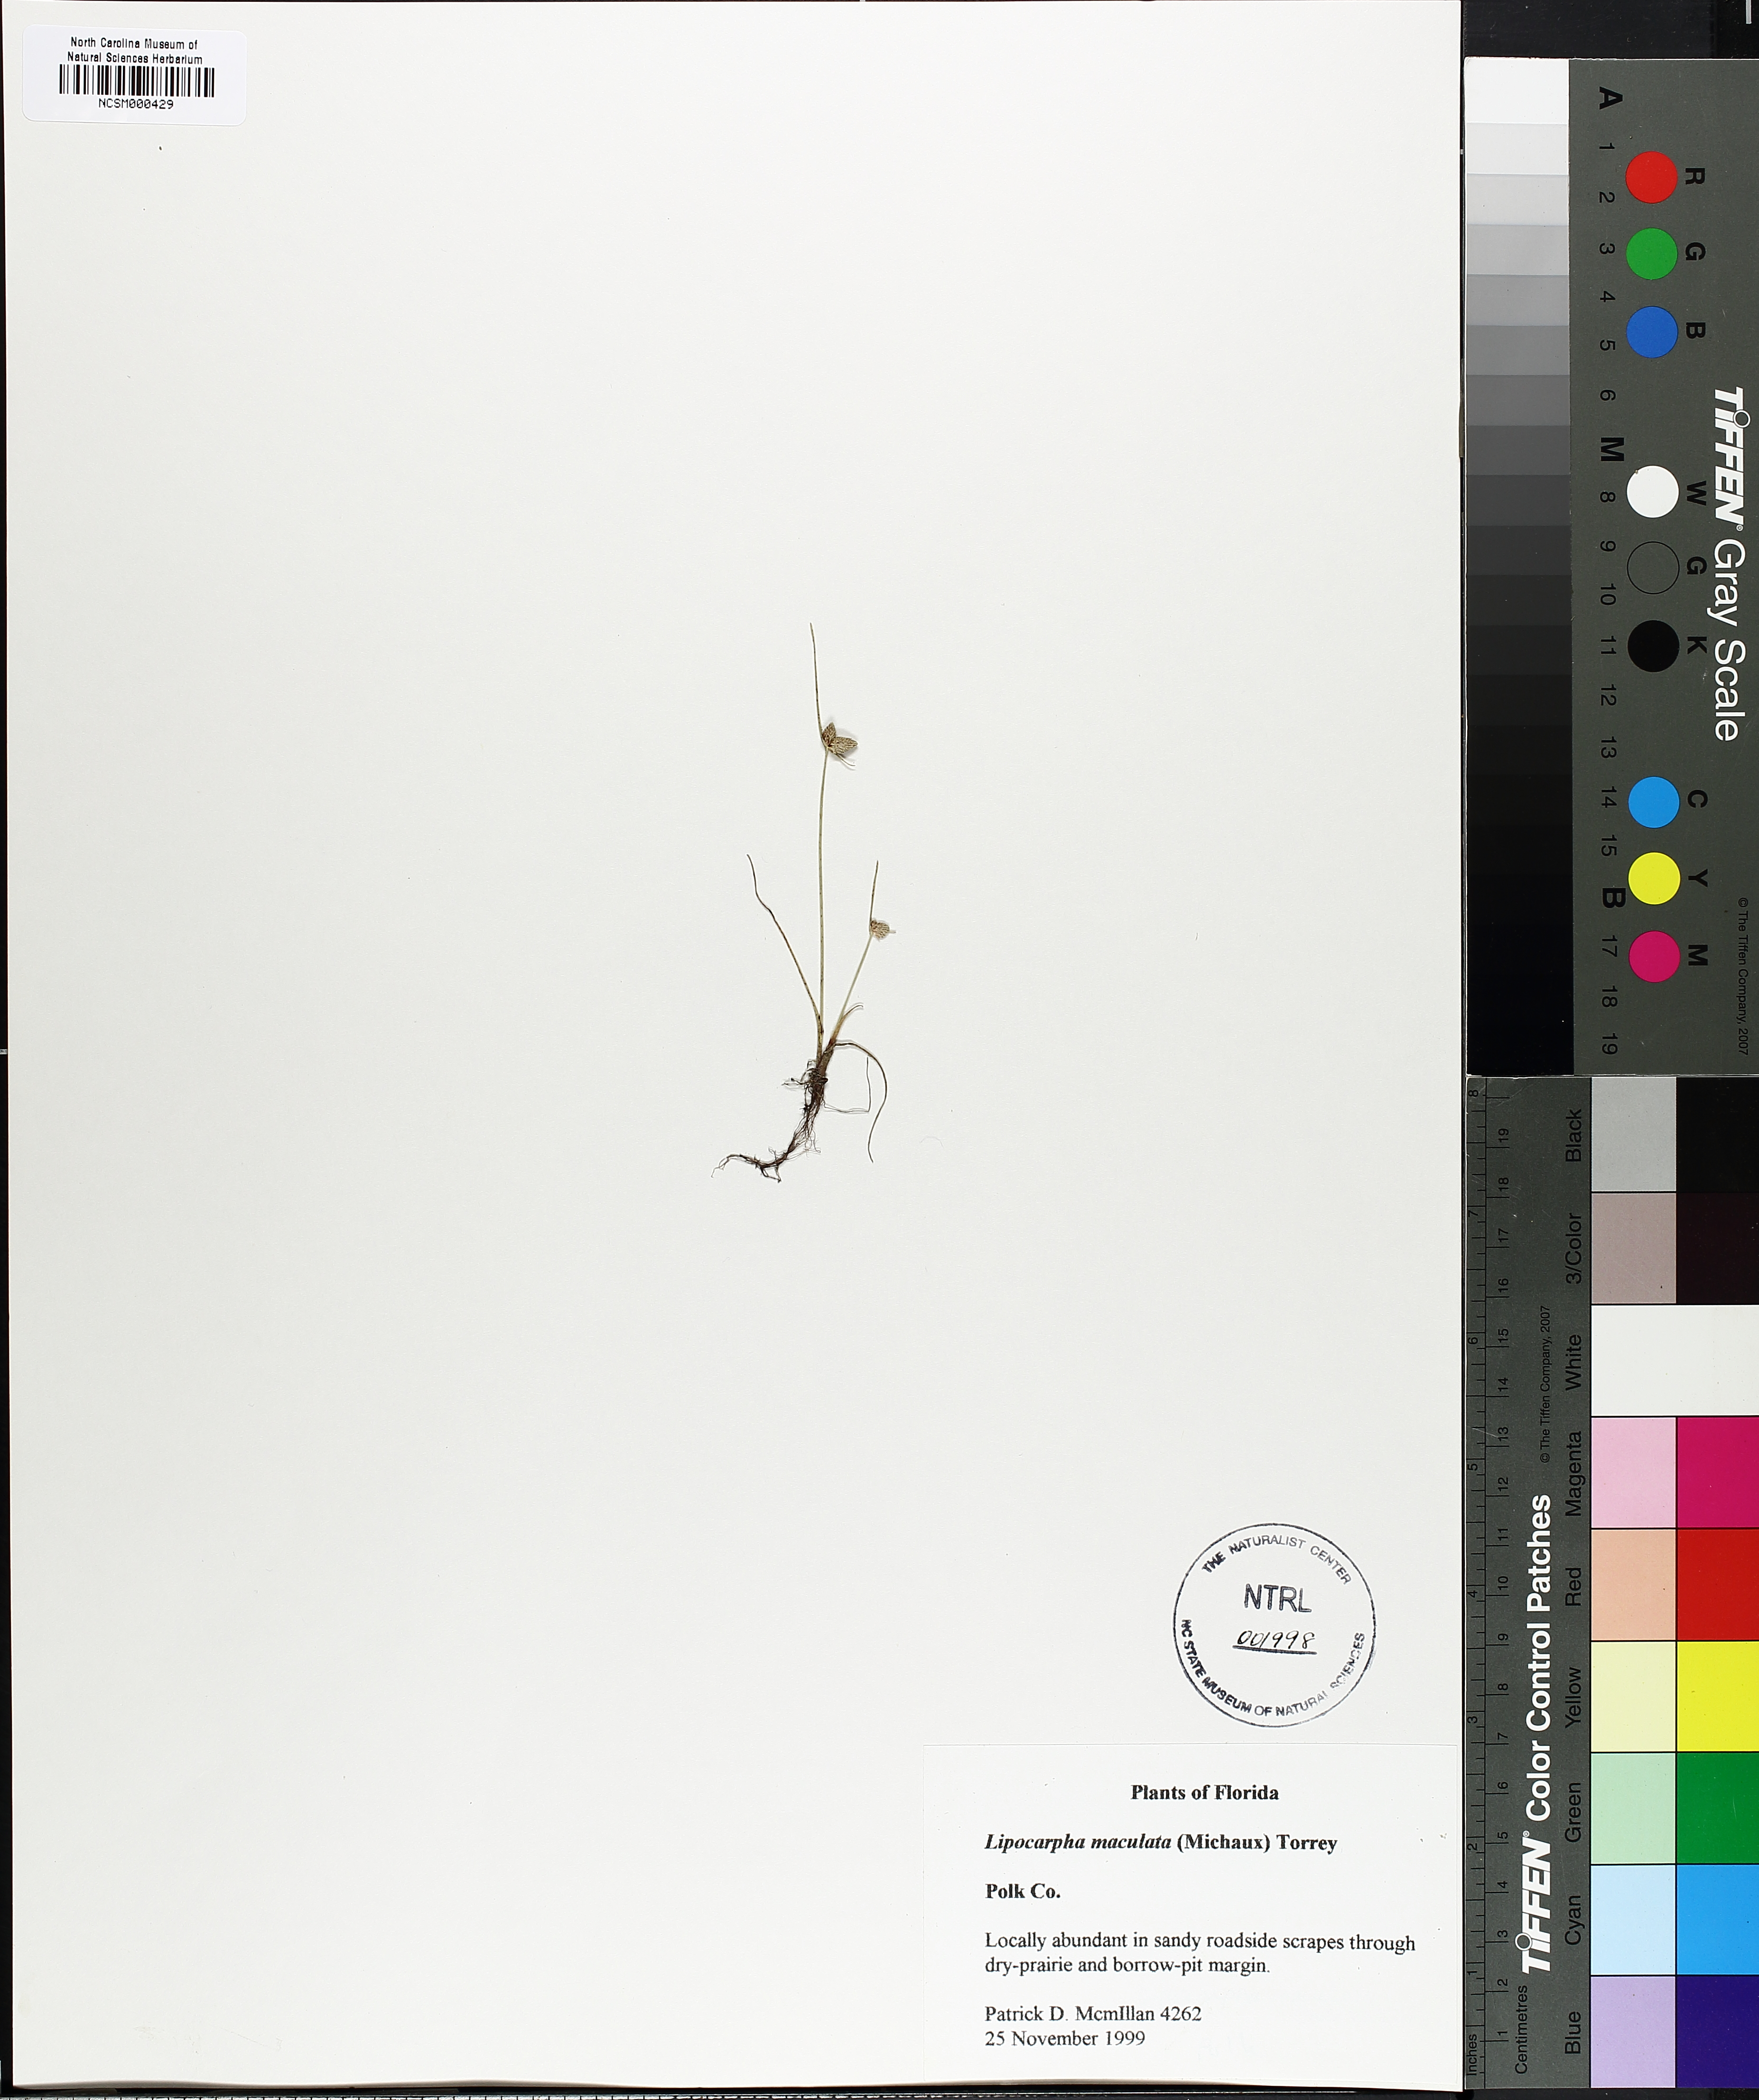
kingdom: Plantae
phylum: Tracheophyta
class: Liliopsida
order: Poales
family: Cyperaceae
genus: Cyperus
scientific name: Cyperus neotropicalis
